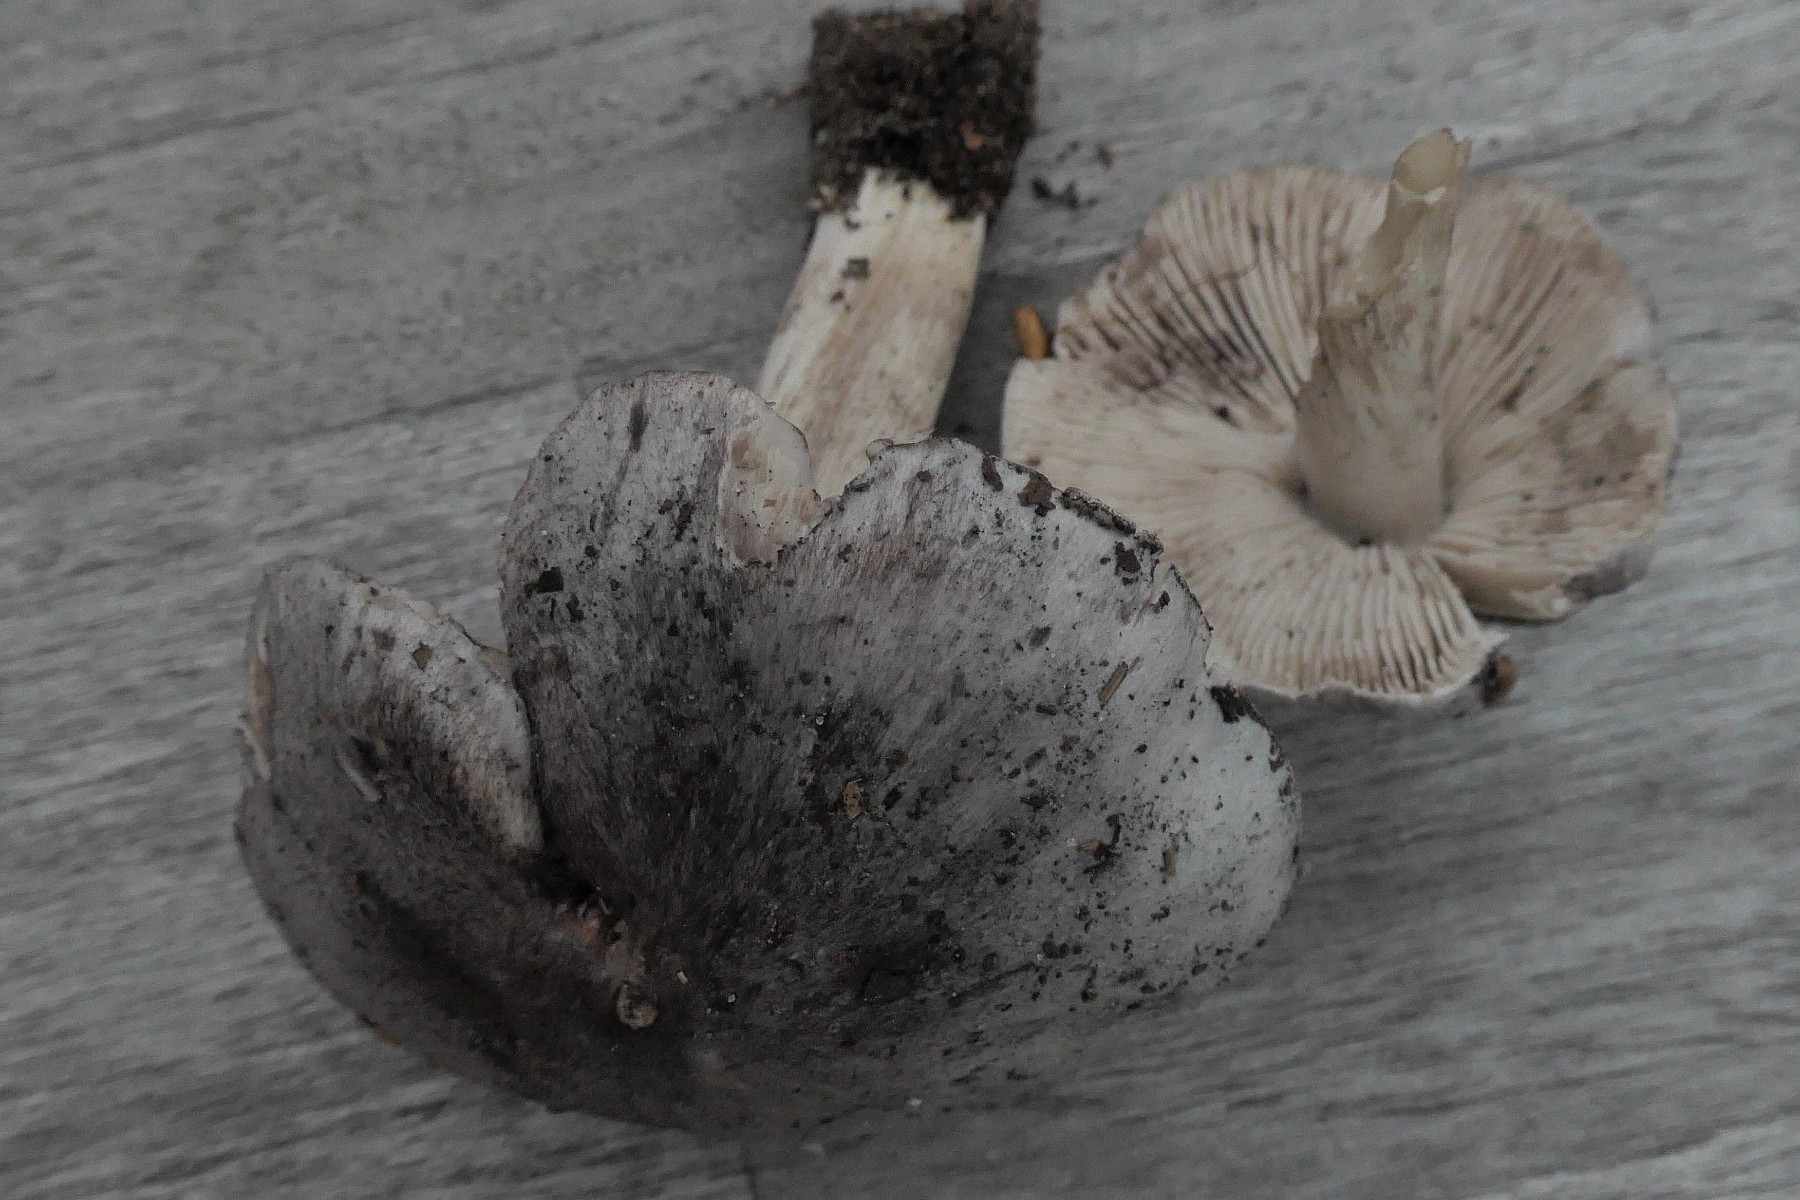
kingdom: Fungi
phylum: Basidiomycota
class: Agaricomycetes
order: Agaricales
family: Tricholomataceae
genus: Tricholoma
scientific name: Tricholoma sciodes
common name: stribet ridderhat
